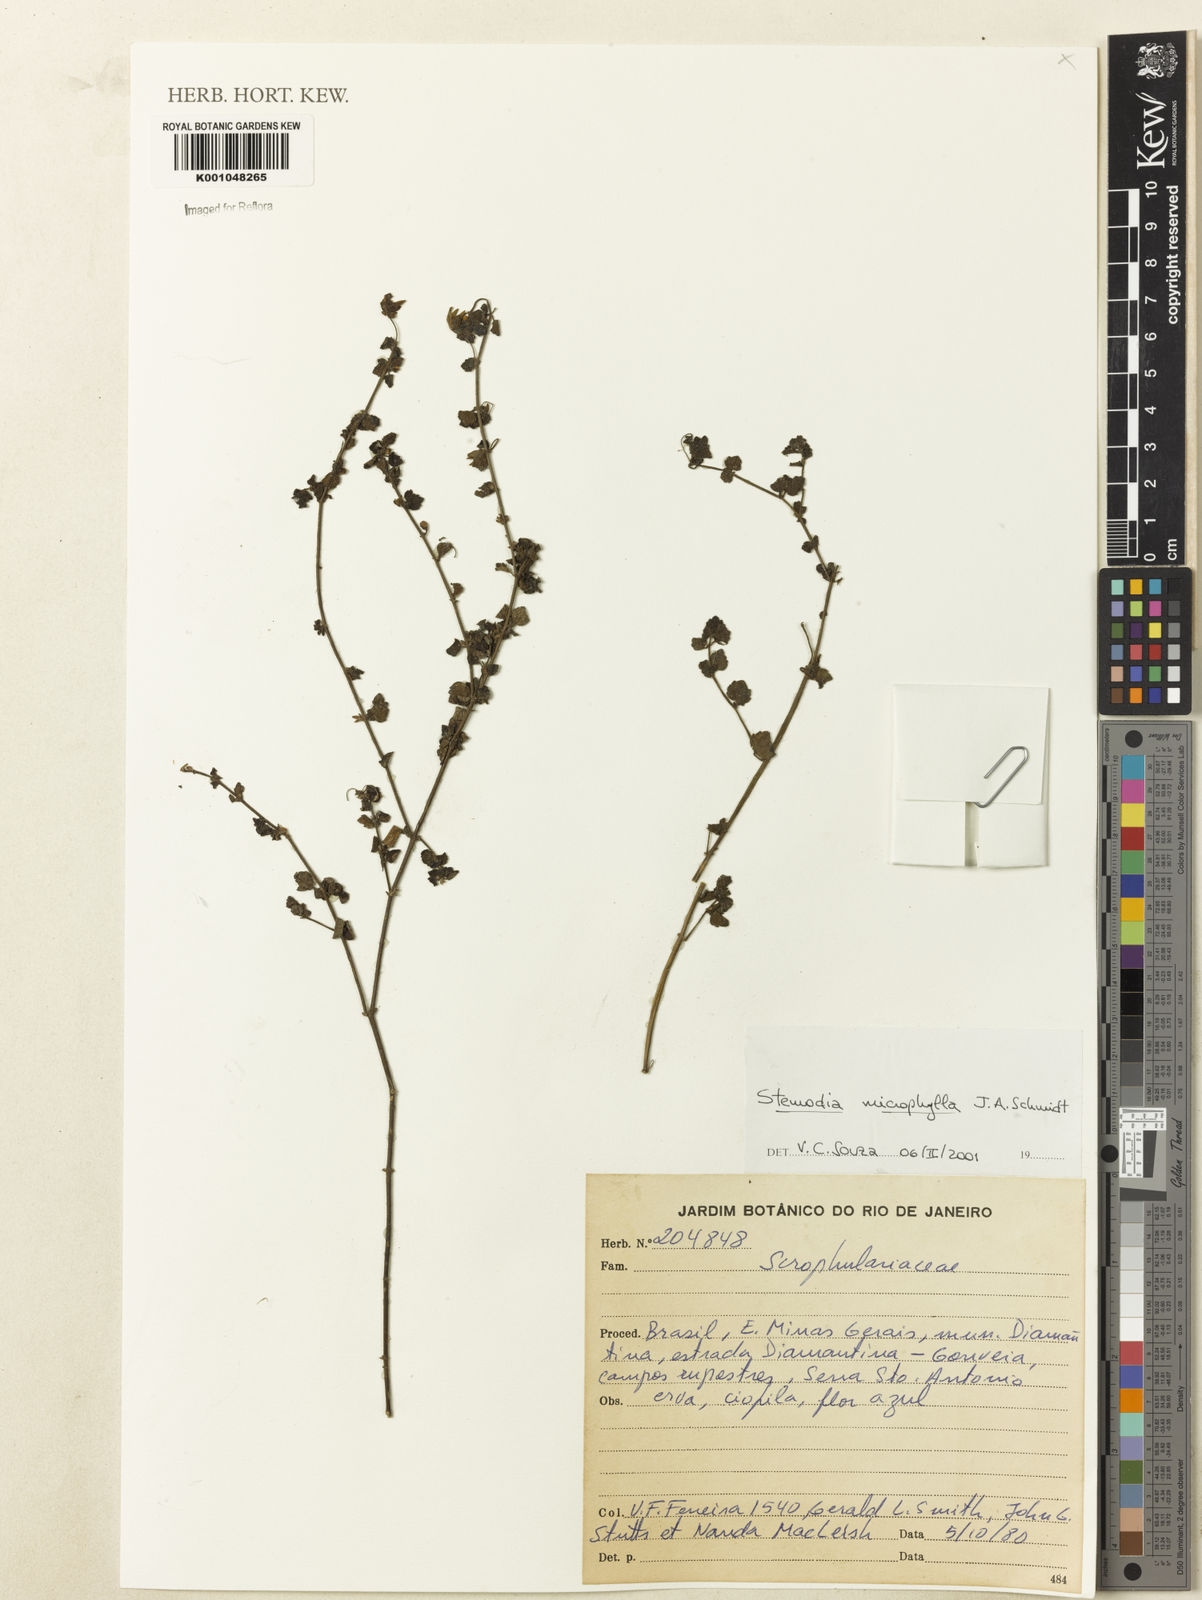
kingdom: Plantae
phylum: Tracheophyta
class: Magnoliopsida
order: Lamiales
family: Plantaginaceae
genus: Umbraria
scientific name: Umbraria microphylla
